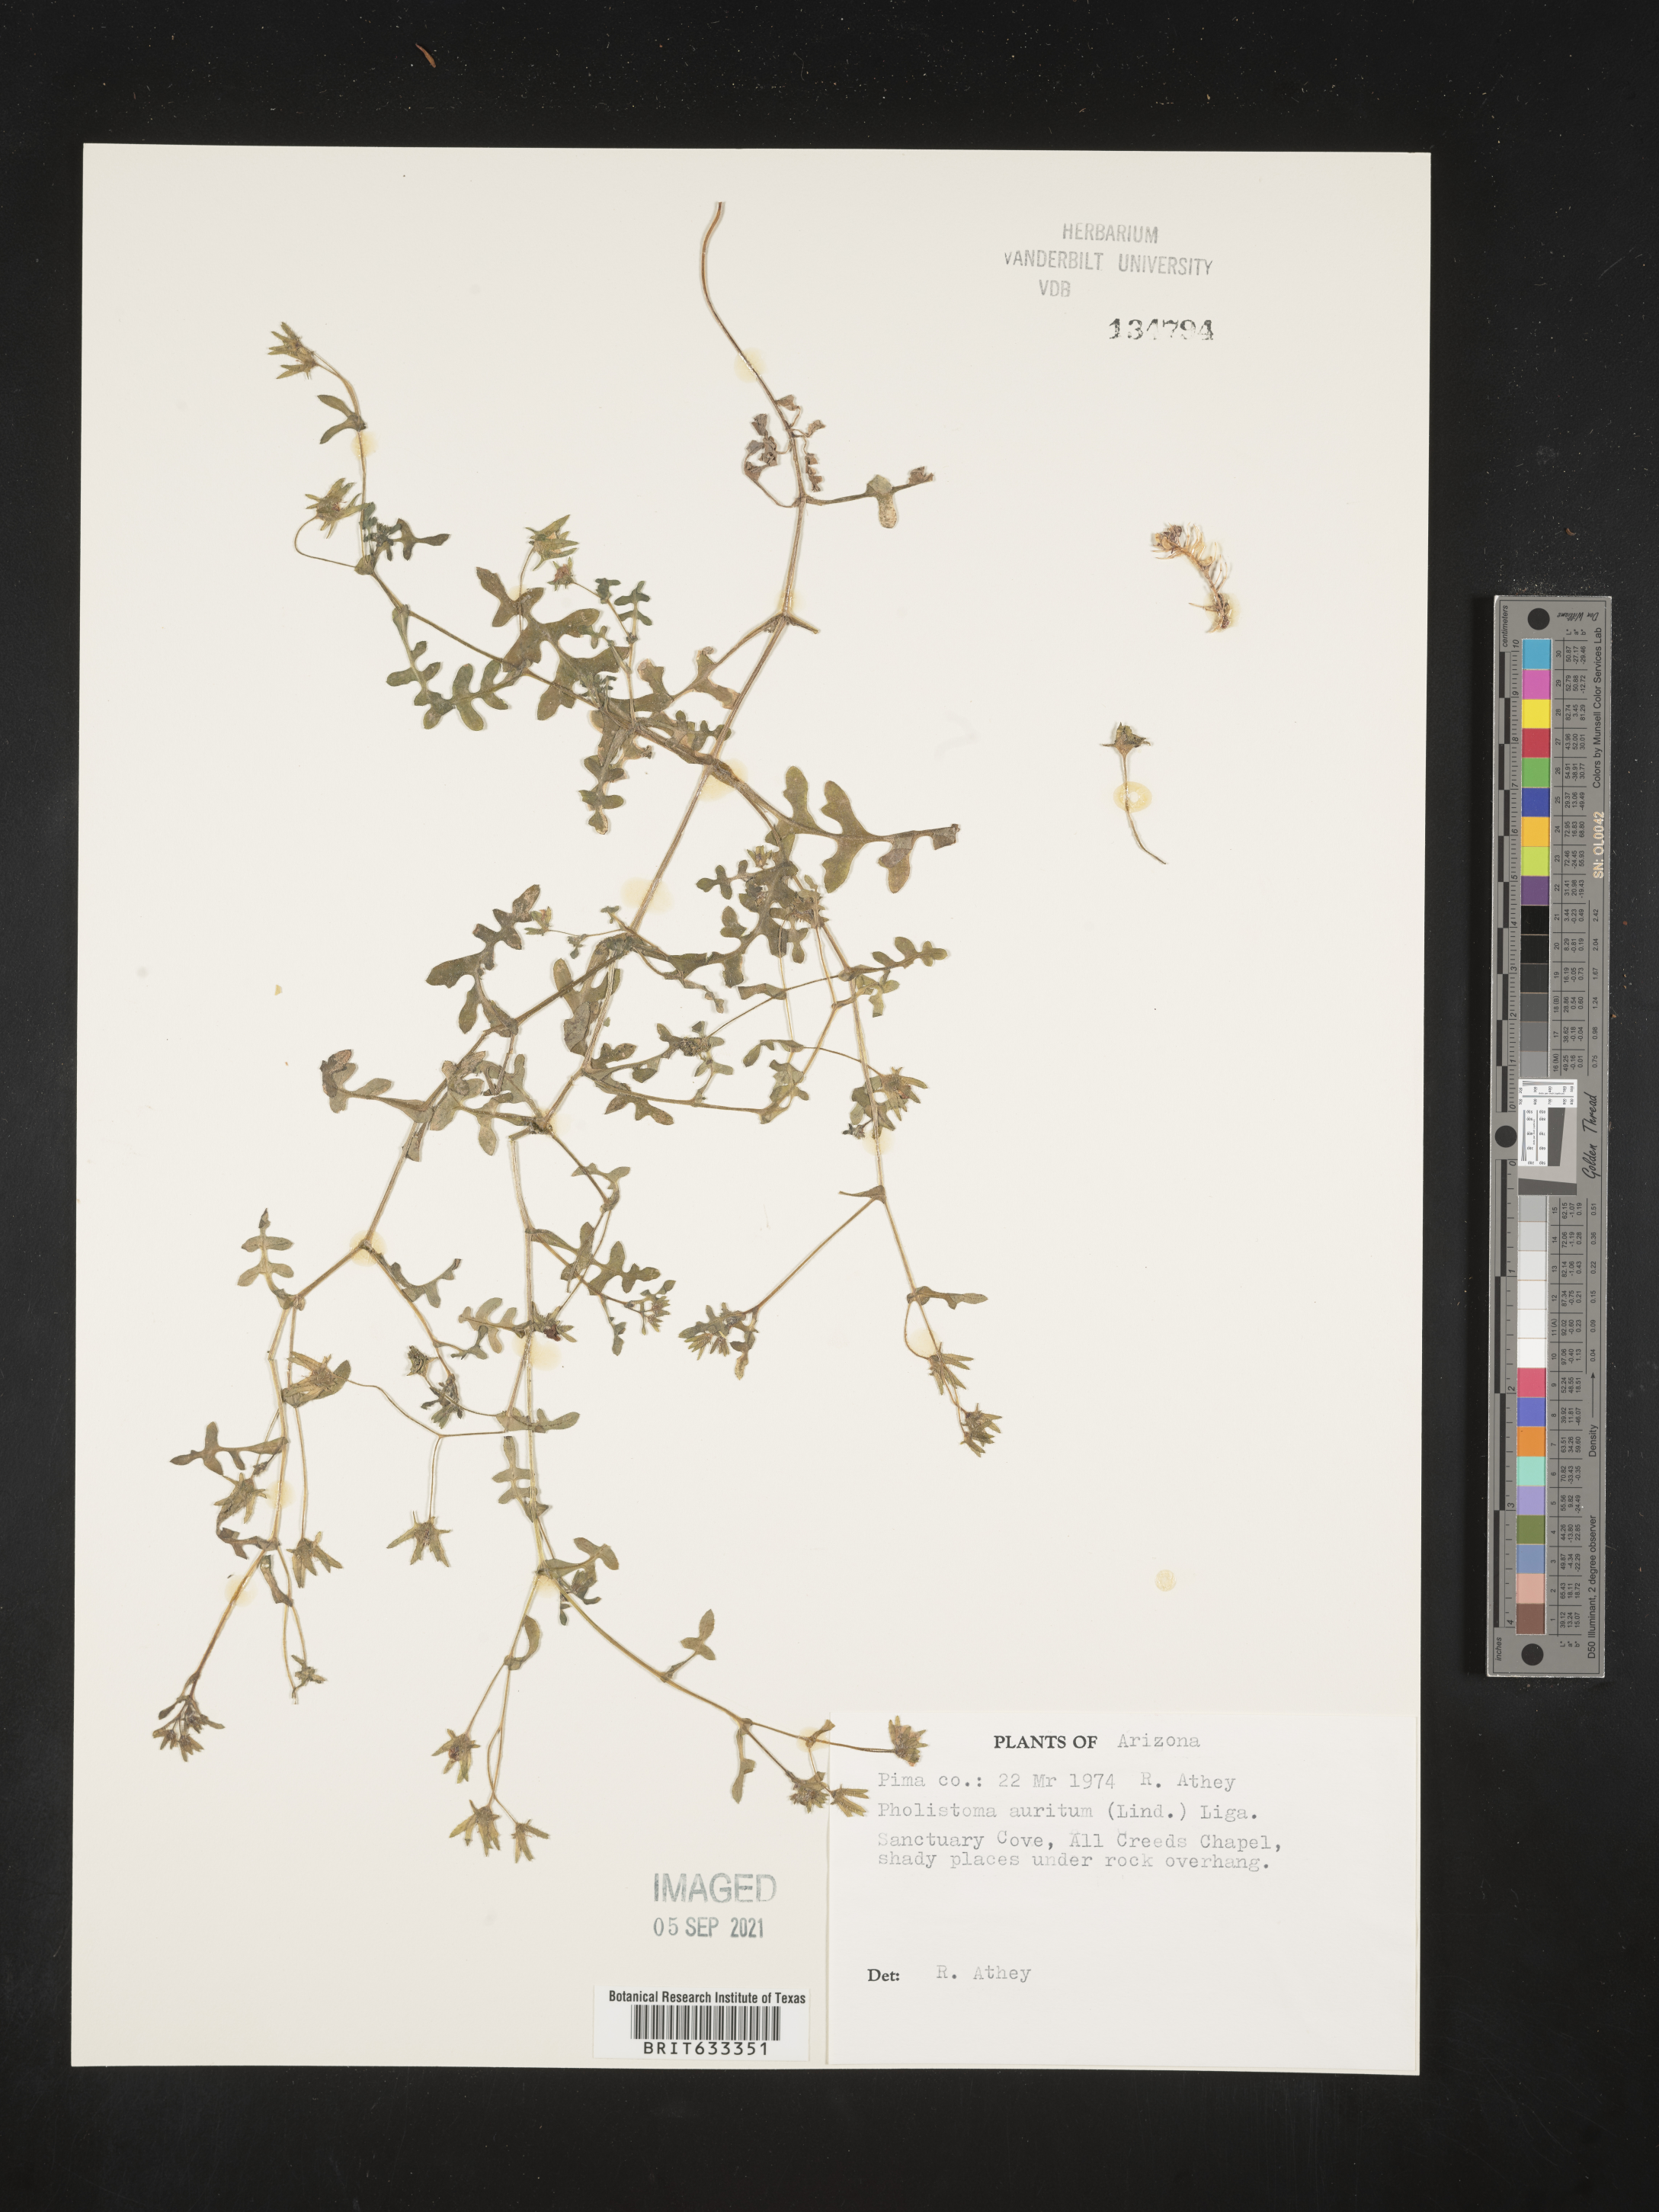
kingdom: Plantae
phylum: Tracheophyta
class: Magnoliopsida
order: Boraginales
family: Hydrophyllaceae
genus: Pholistoma
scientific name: Pholistoma auritum
